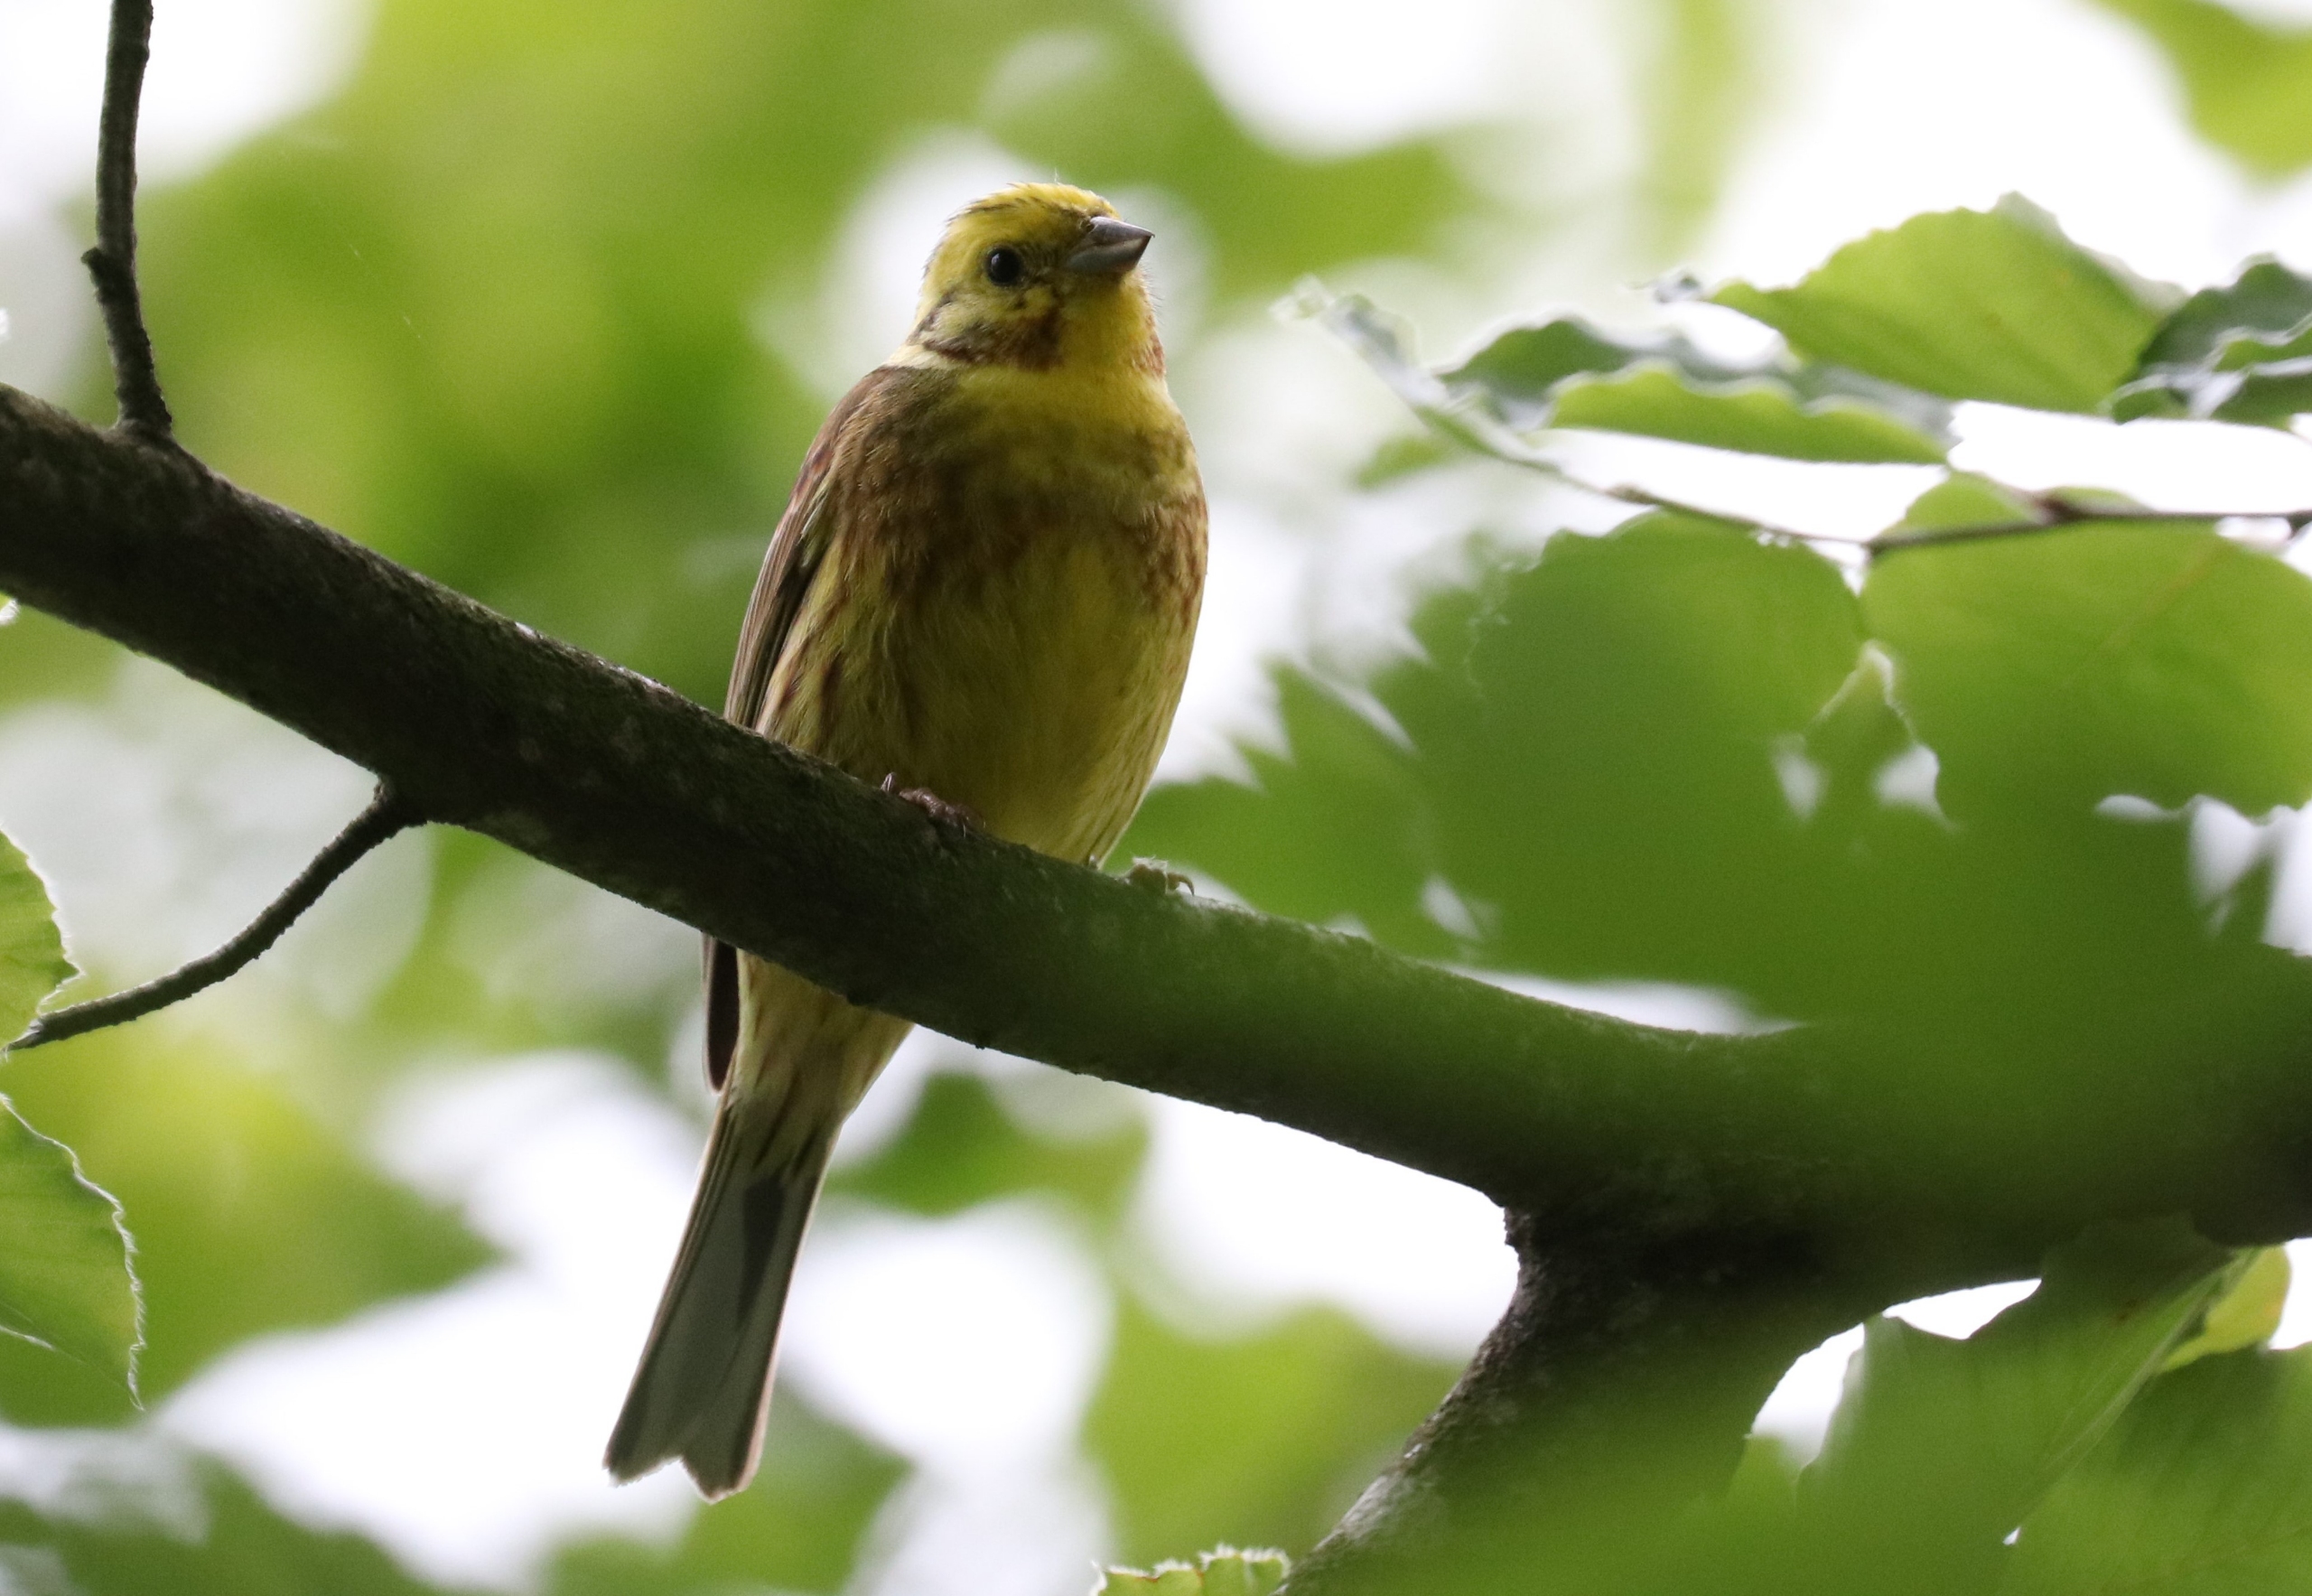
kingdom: Animalia
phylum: Chordata
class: Aves
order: Passeriformes
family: Emberizidae
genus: Emberiza
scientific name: Emberiza citrinella
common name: Gulspurv
